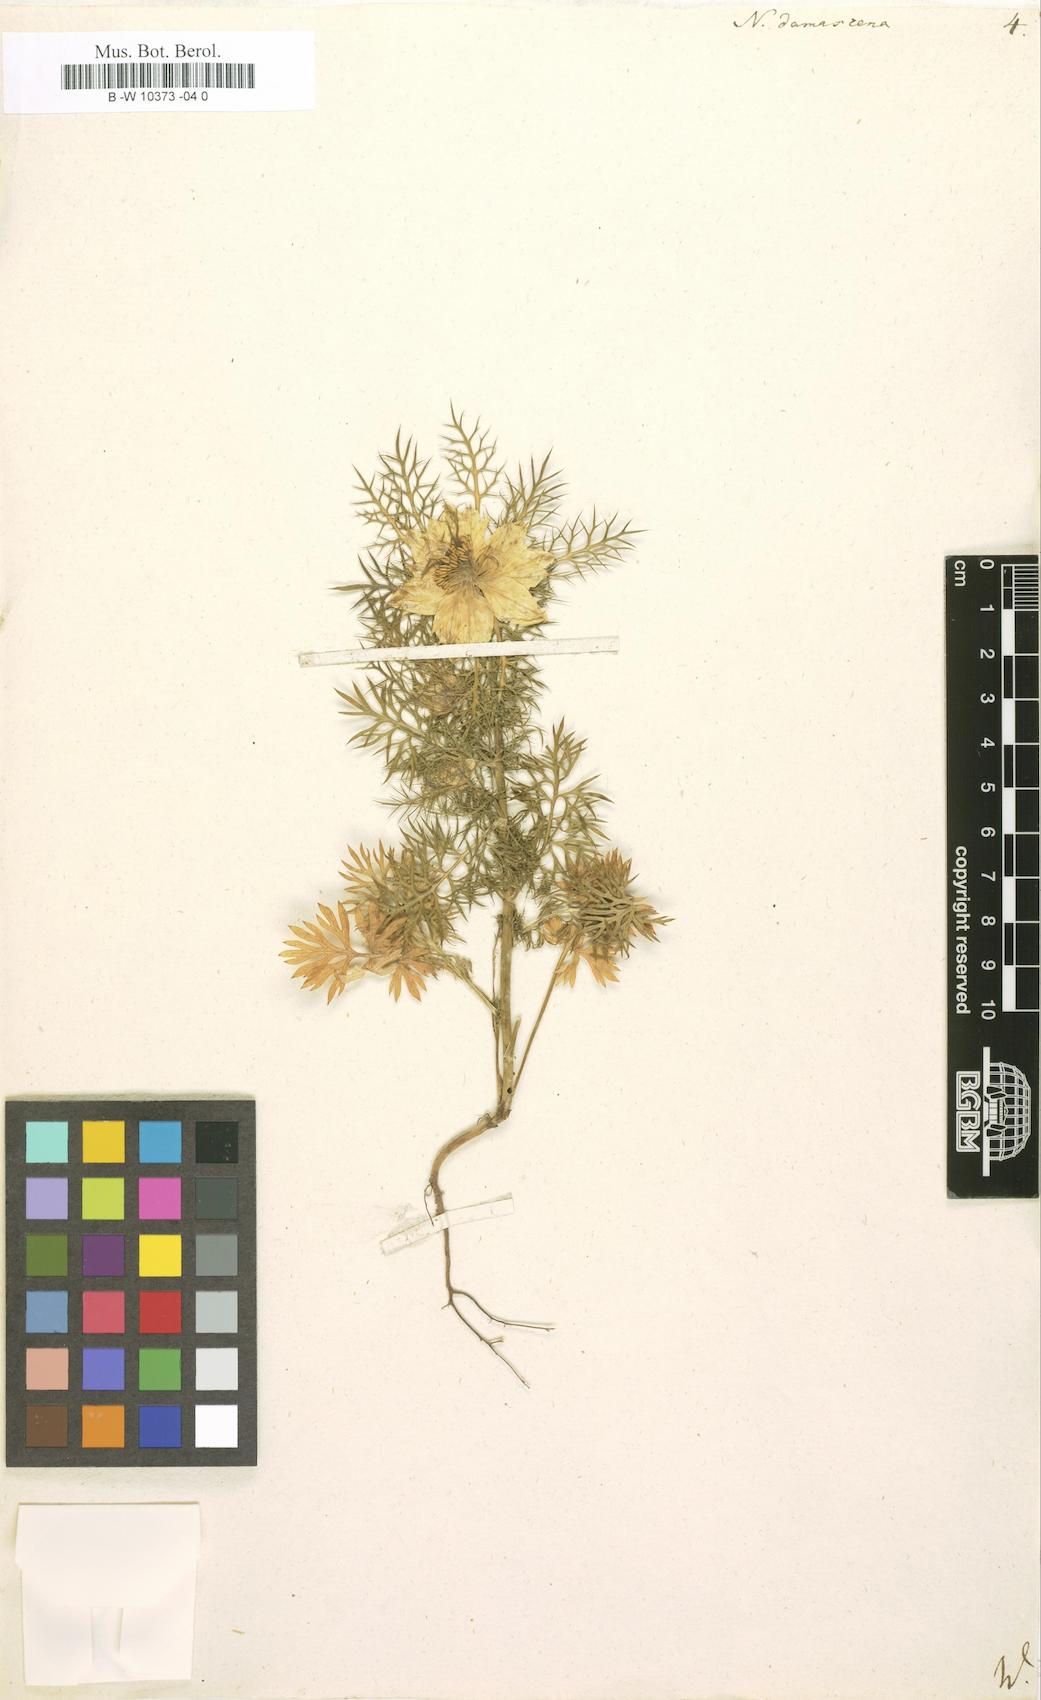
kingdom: Plantae
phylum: Tracheophyta
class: Magnoliopsida
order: Ranunculales
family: Ranunculaceae
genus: Nigella
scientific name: Nigella damascena
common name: Love-in-a-mist
